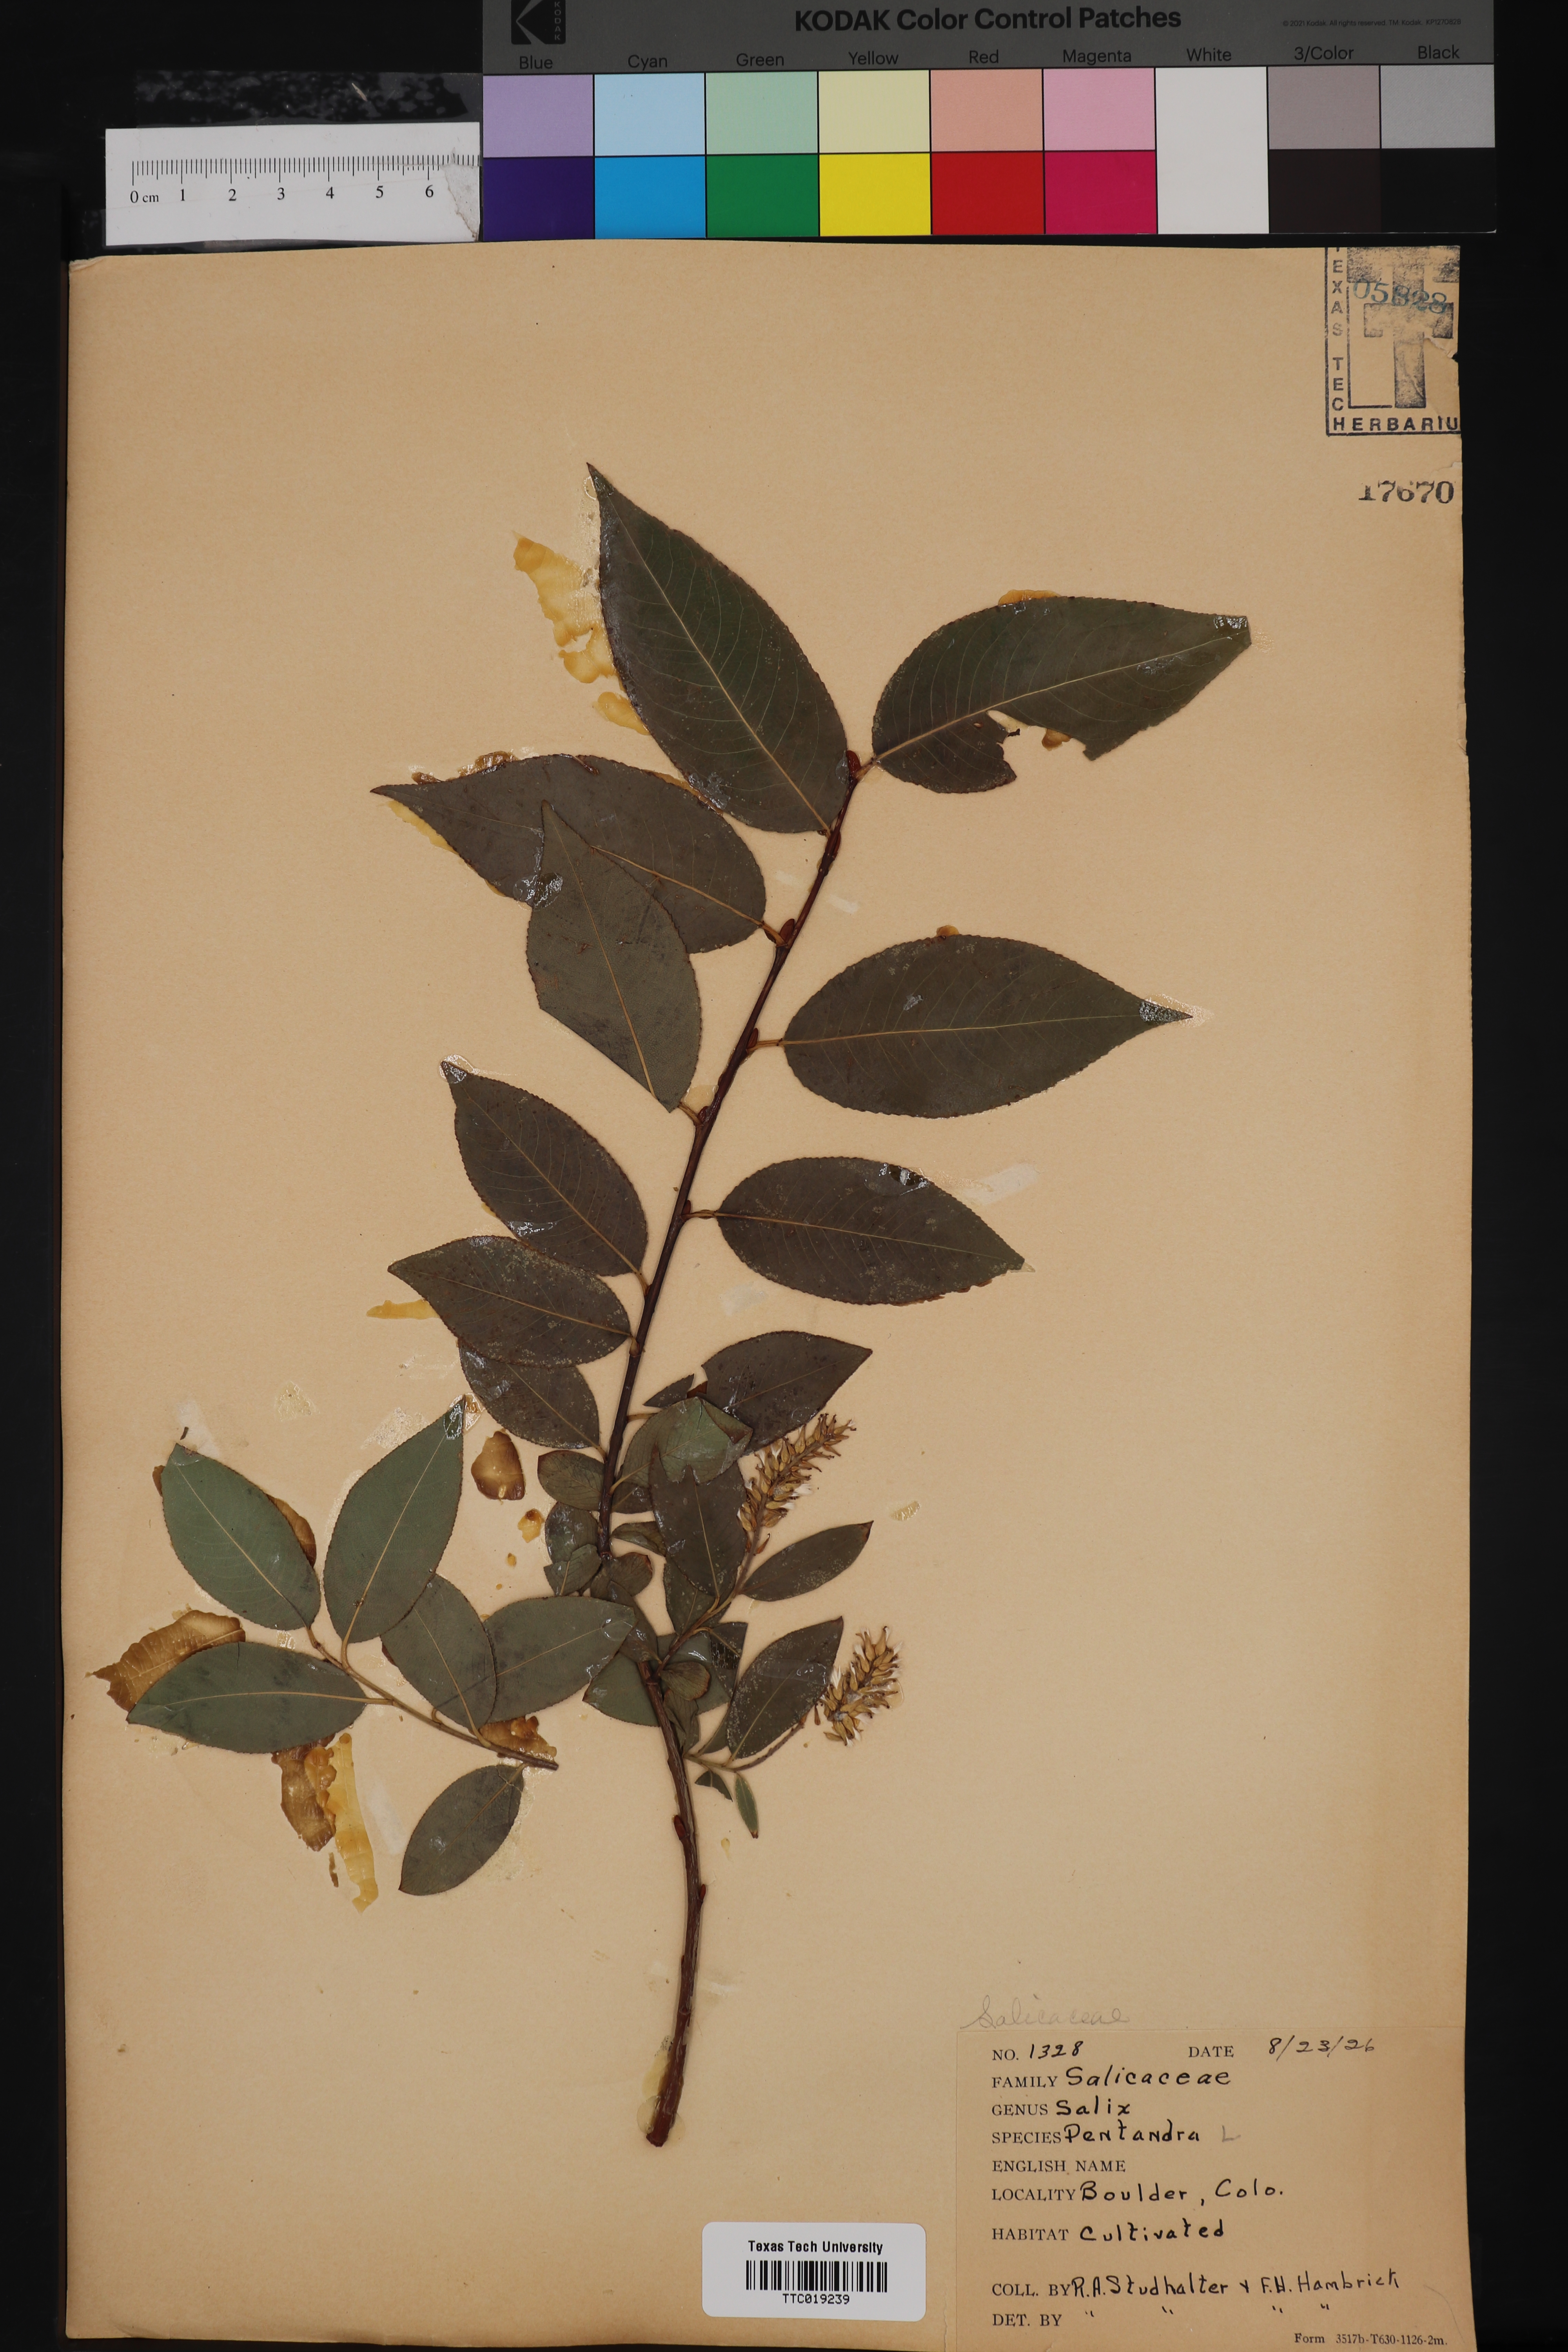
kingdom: Plantae
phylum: Tracheophyta
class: Magnoliopsida
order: Malpighiales
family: Salicaceae
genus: Salix
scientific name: Salix pentandra
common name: Bay willow
